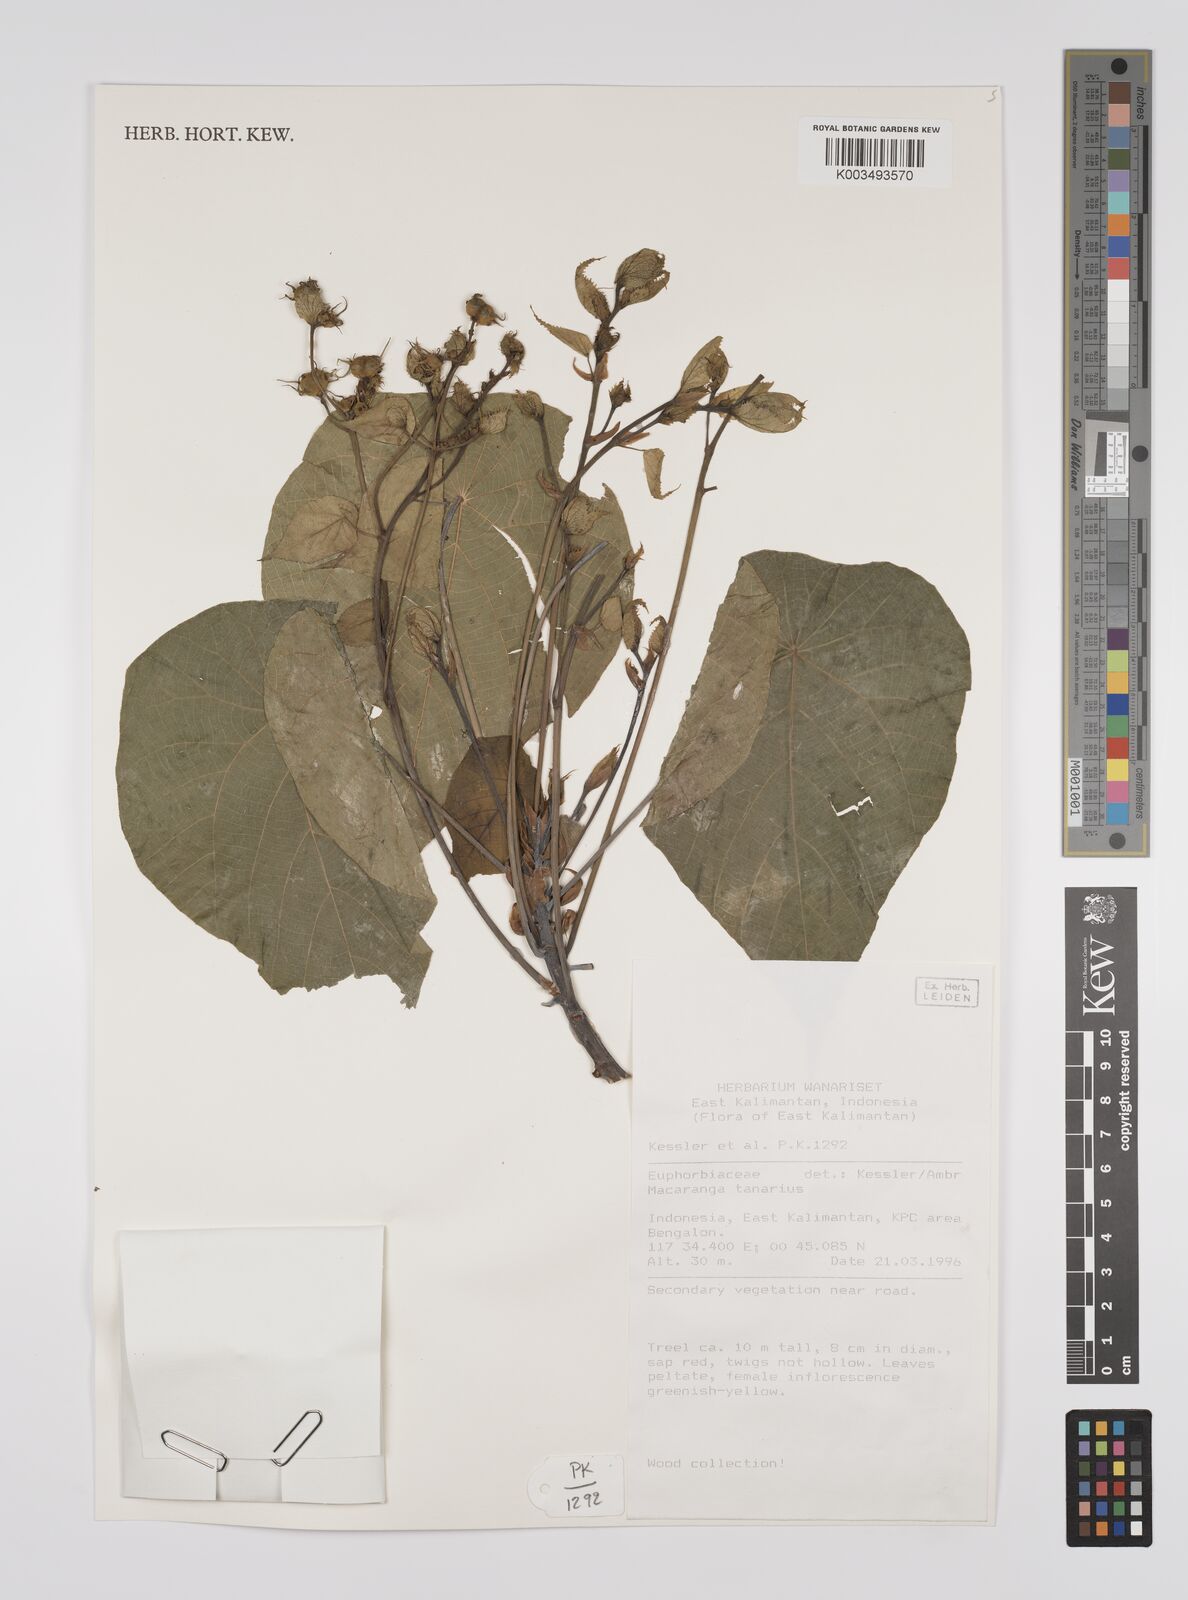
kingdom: Plantae
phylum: Tracheophyta
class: Magnoliopsida
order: Malpighiales
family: Euphorbiaceae
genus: Macaranga
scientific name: Macaranga tanarius
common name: Parasol leaf tree
